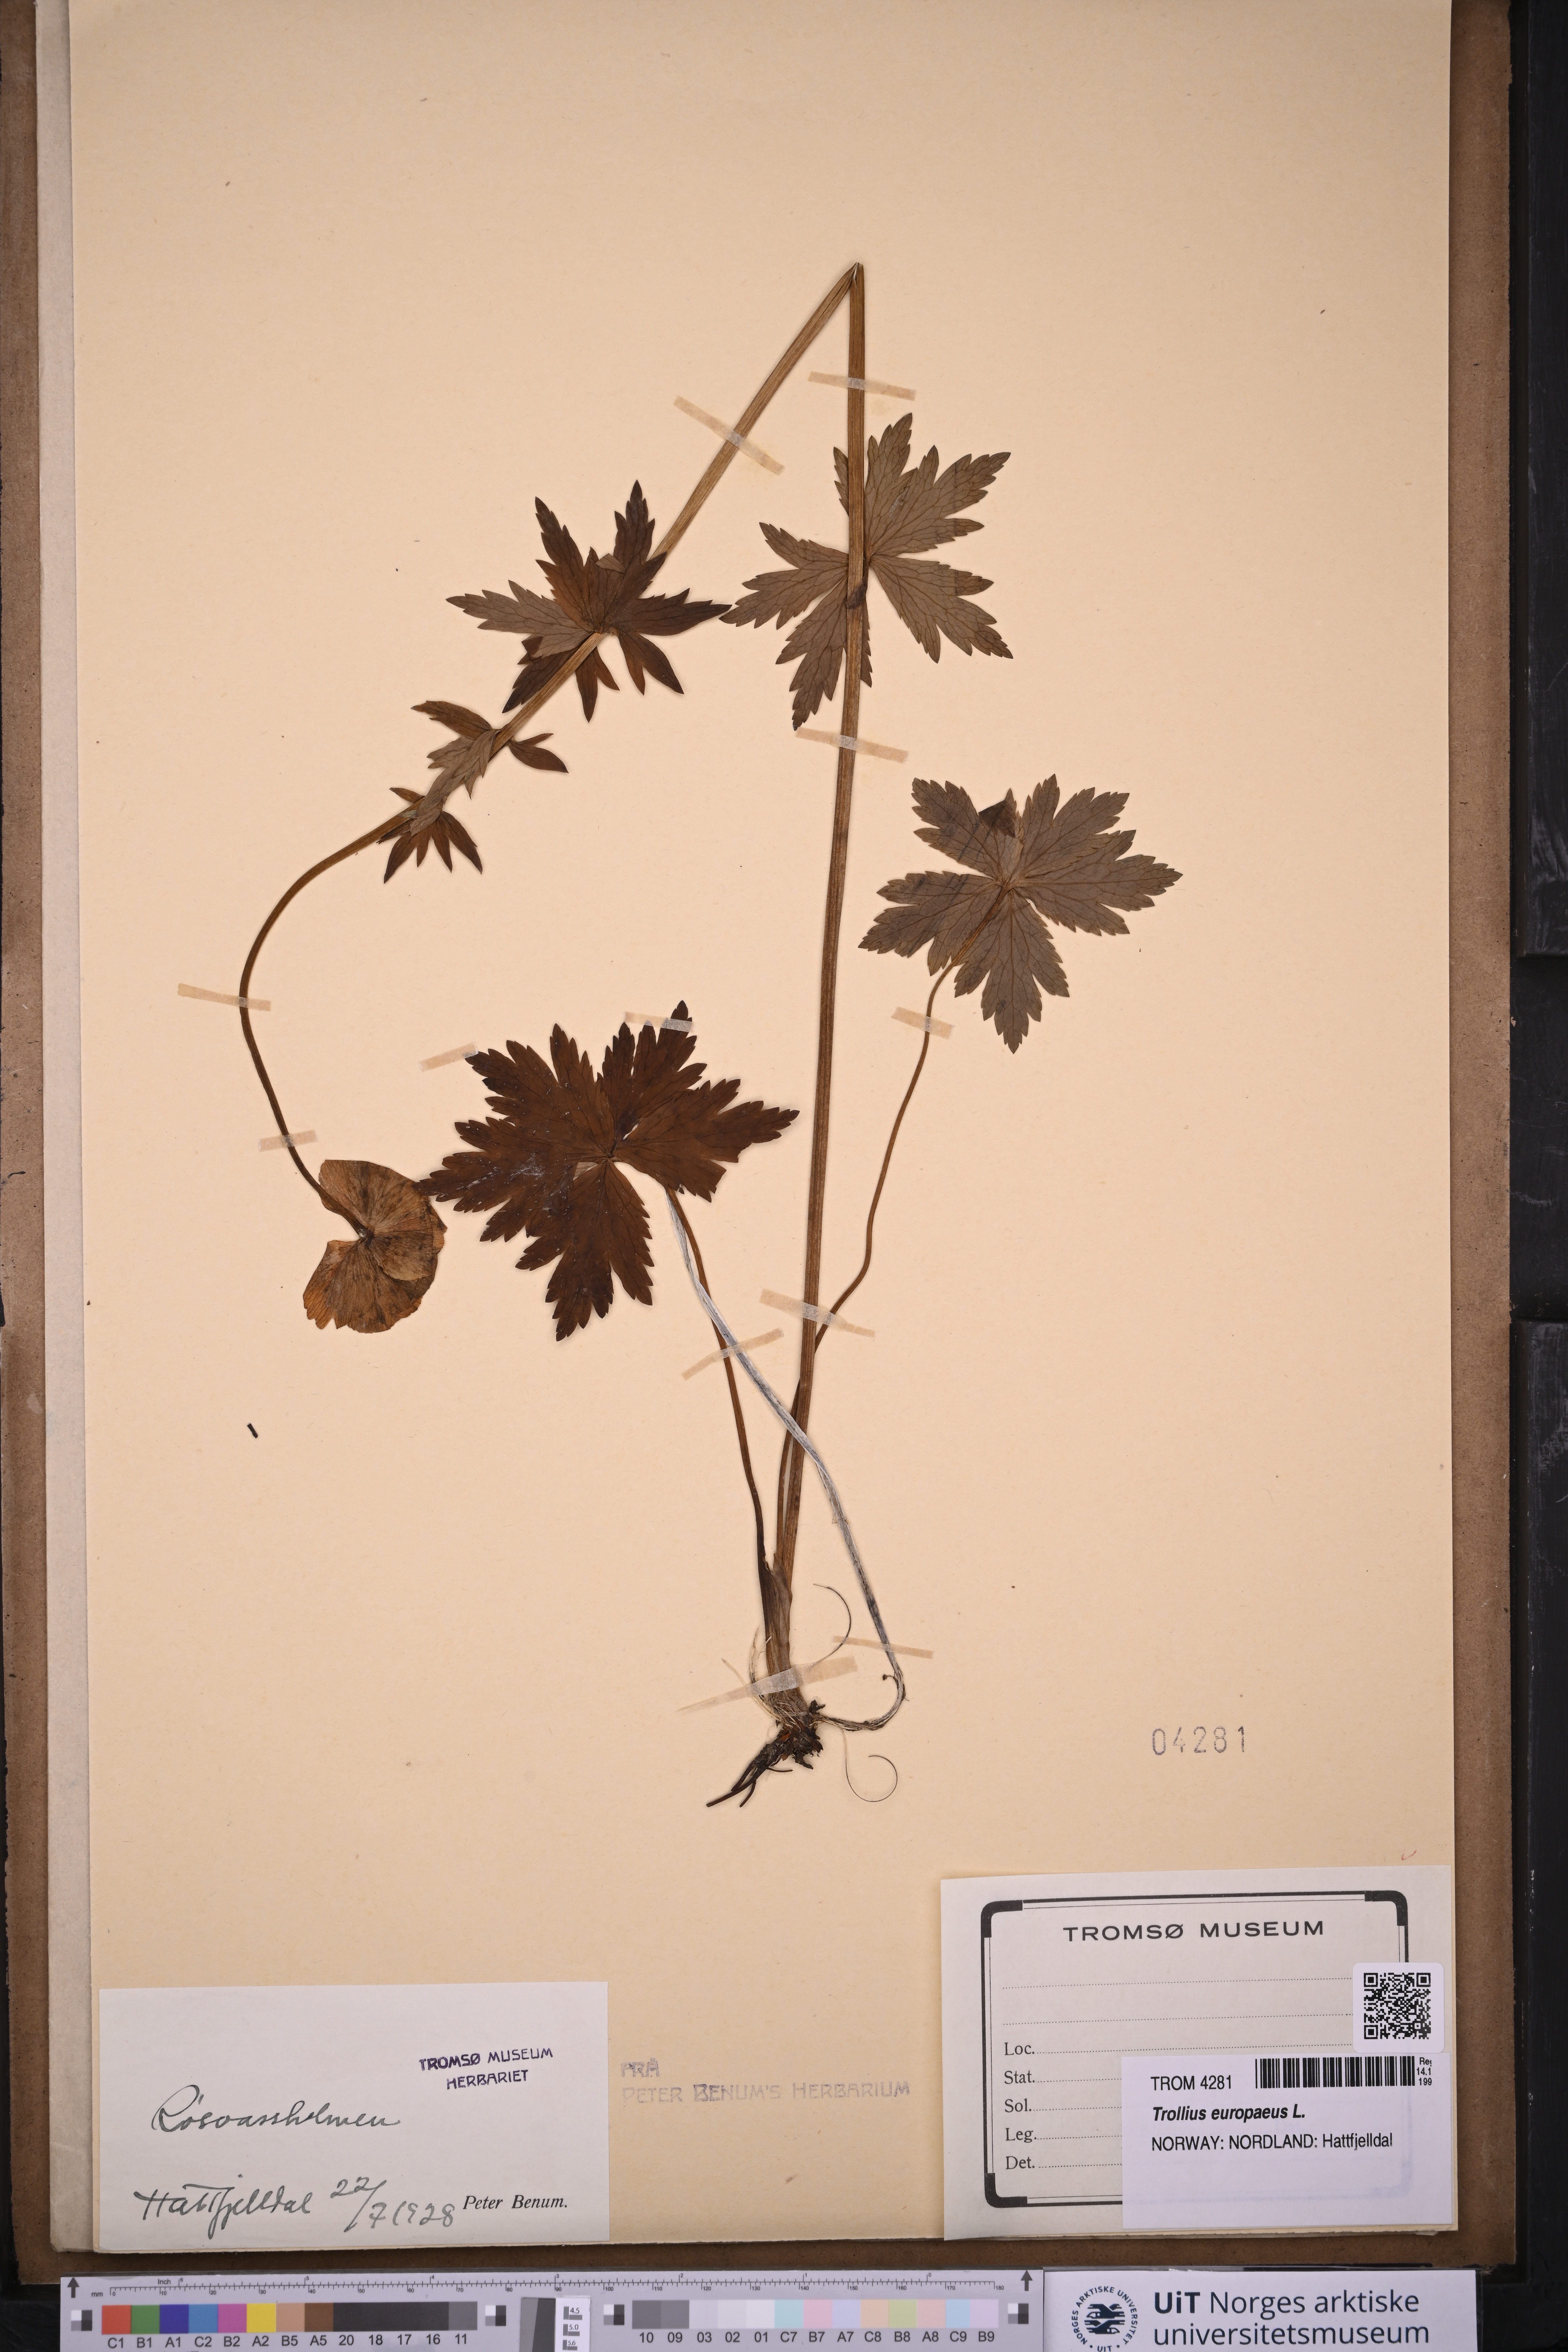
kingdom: Plantae
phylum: Tracheophyta
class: Magnoliopsida
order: Ranunculales
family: Ranunculaceae
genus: Trollius
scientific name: Trollius europaeus
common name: European globeflower
